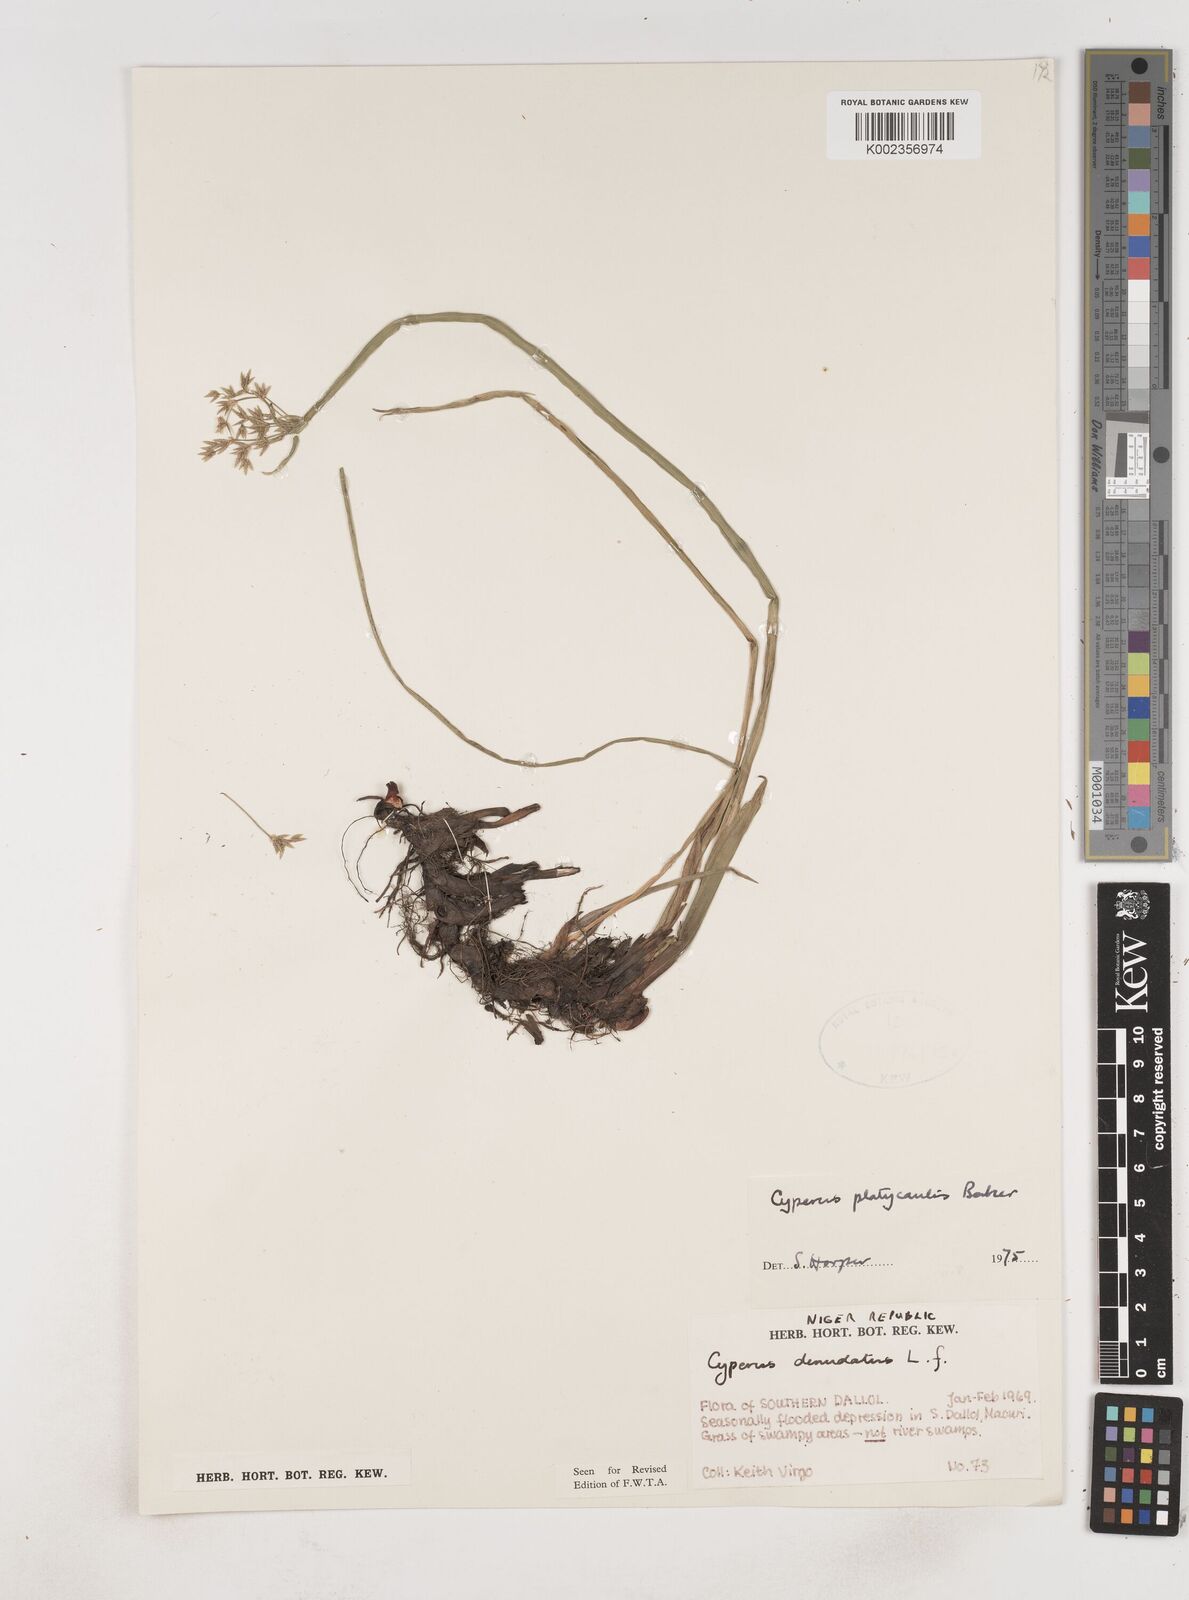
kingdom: Plantae
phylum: Tracheophyta
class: Liliopsida
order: Poales
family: Cyperaceae
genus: Cyperus
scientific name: Cyperus platycaulis
